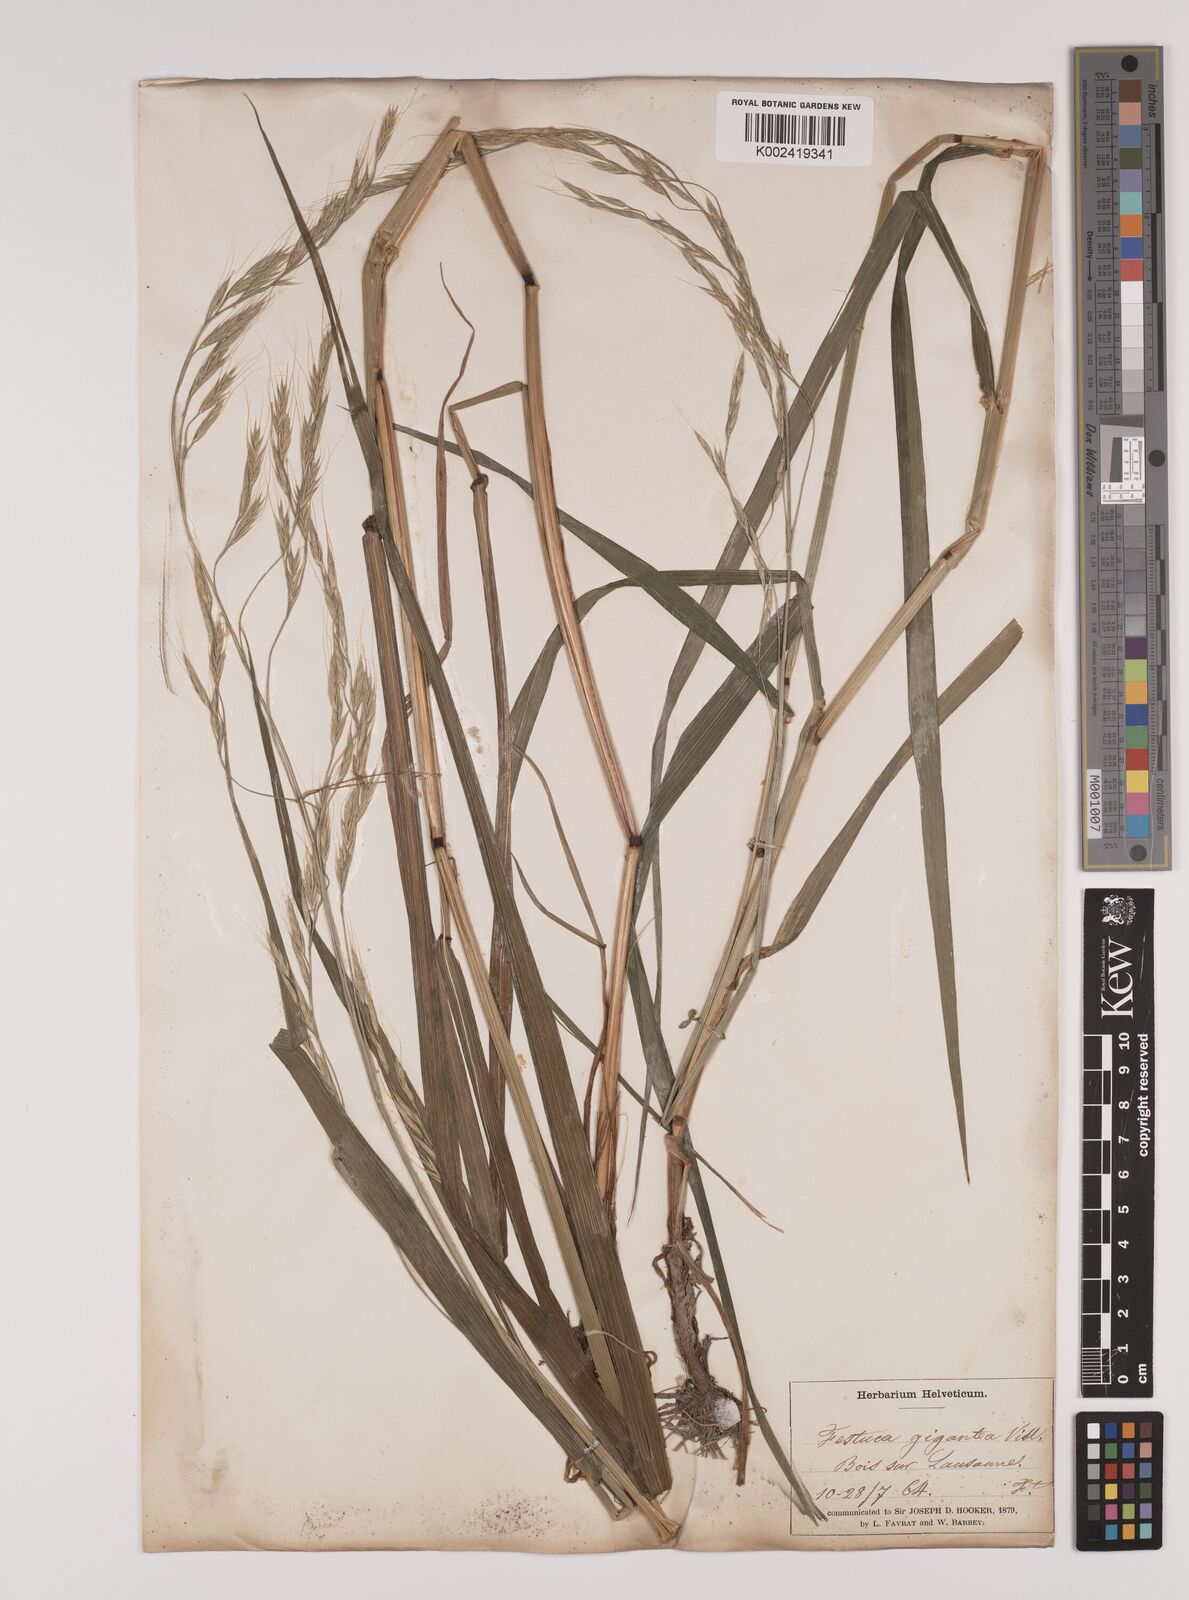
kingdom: Plantae
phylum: Tracheophyta
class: Liliopsida
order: Poales
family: Poaceae
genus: Lolium
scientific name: Lolium giganteum
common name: Giant fescue
